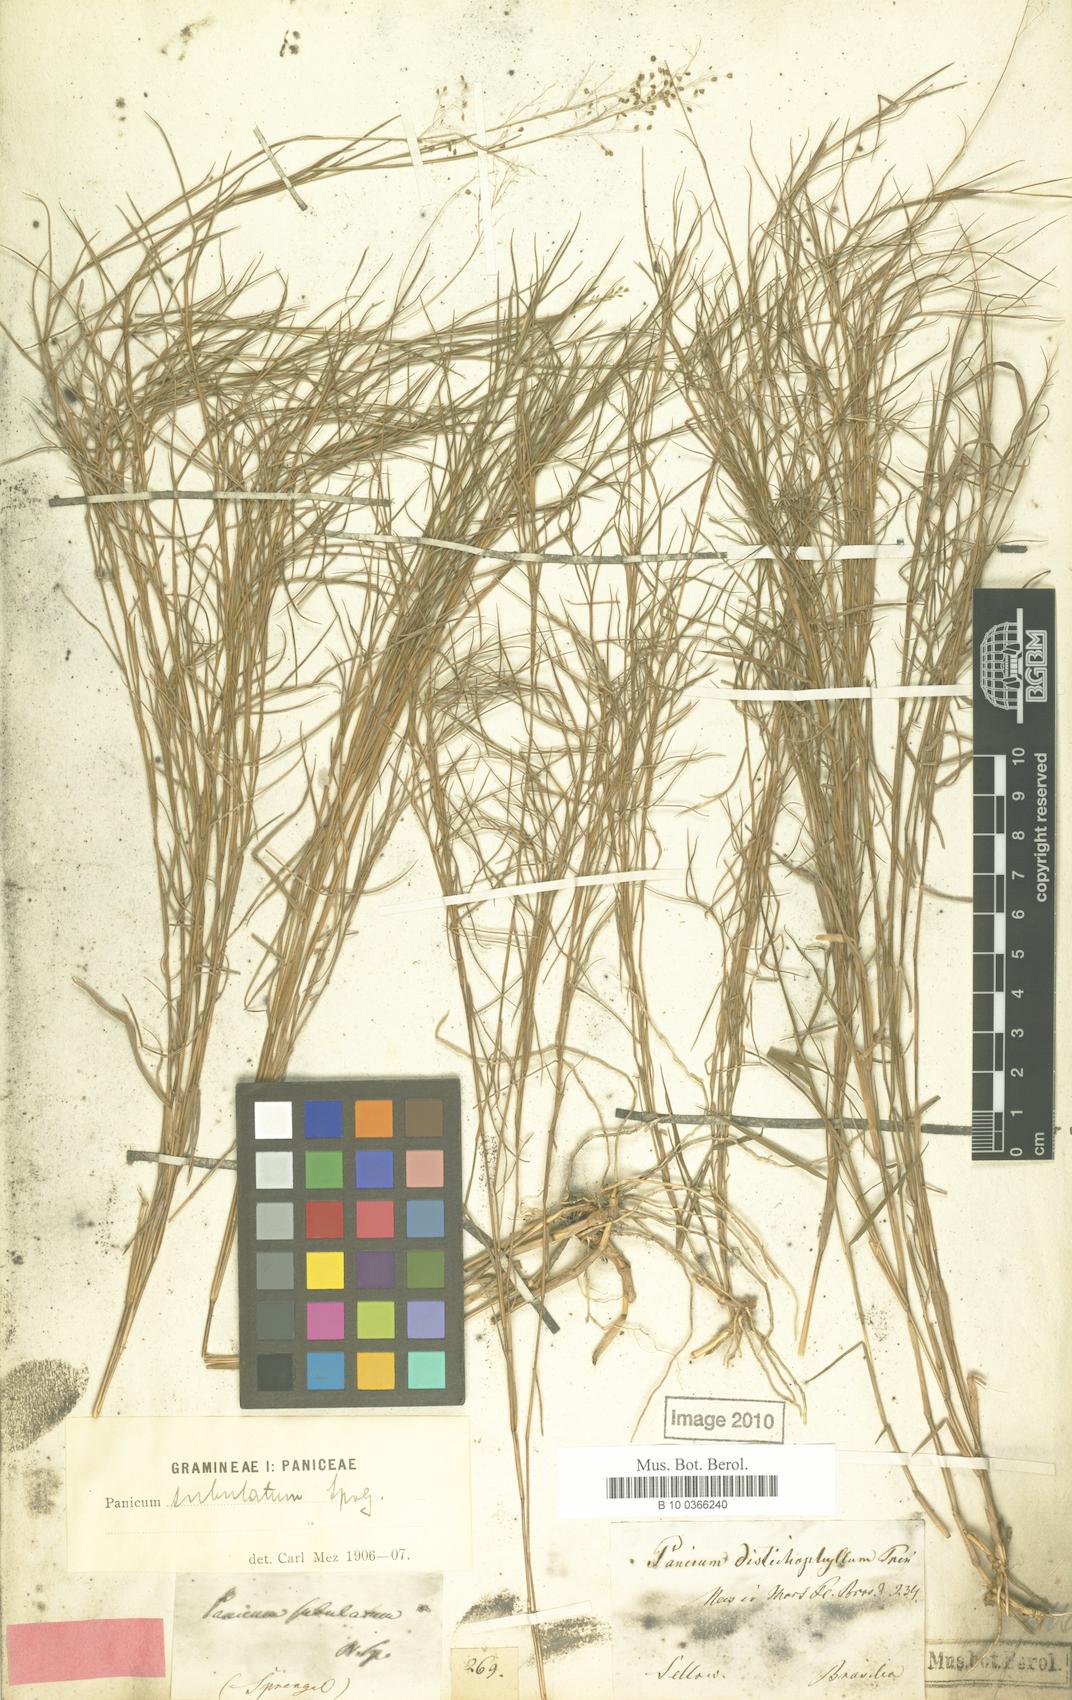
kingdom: Plantae
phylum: Tracheophyta
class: Liliopsida
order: Poales
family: Poaceae
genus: Trichanthecium
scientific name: Trichanthecium distichophyllum
